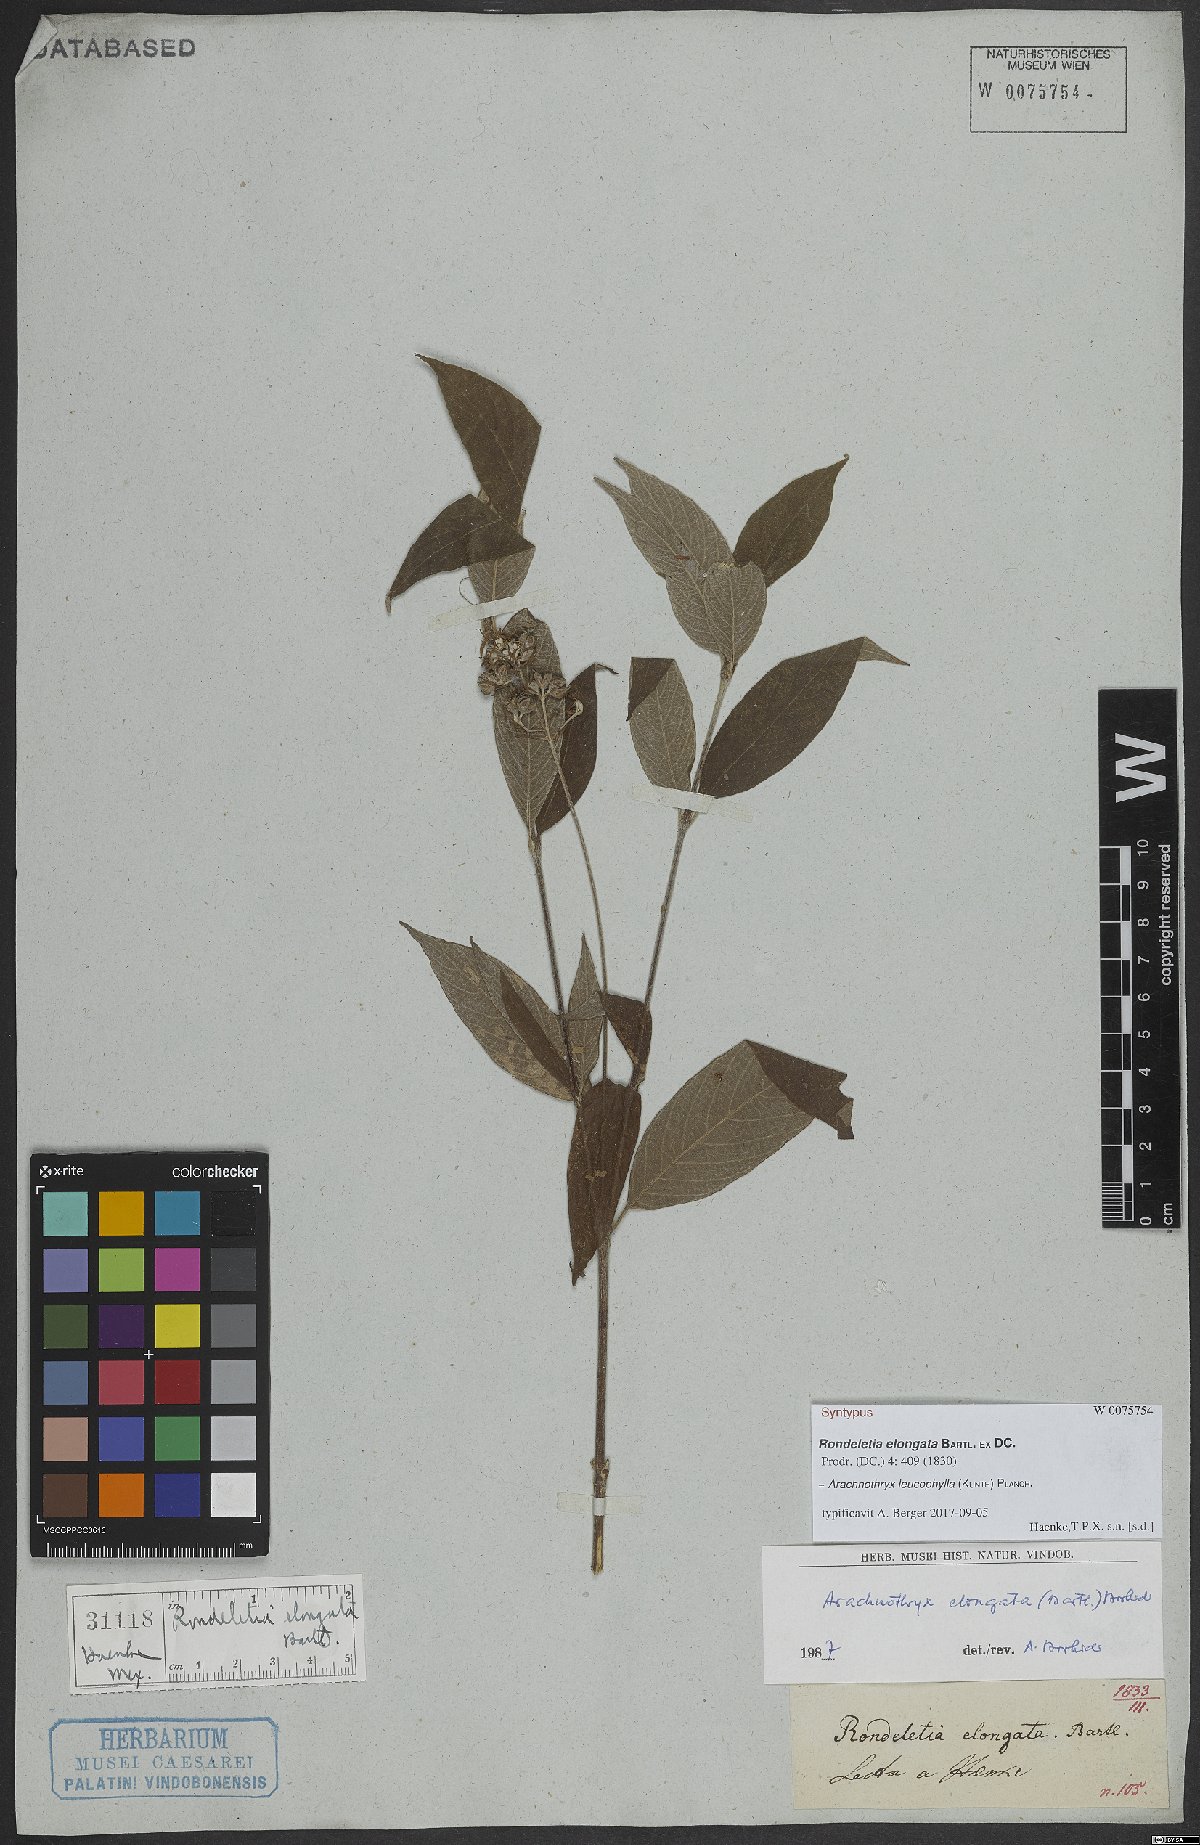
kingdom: Plantae
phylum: Tracheophyta
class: Magnoliopsida
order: Gentianales
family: Rubiaceae
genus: Arachnothryx
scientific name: Arachnothryx leucophylla
